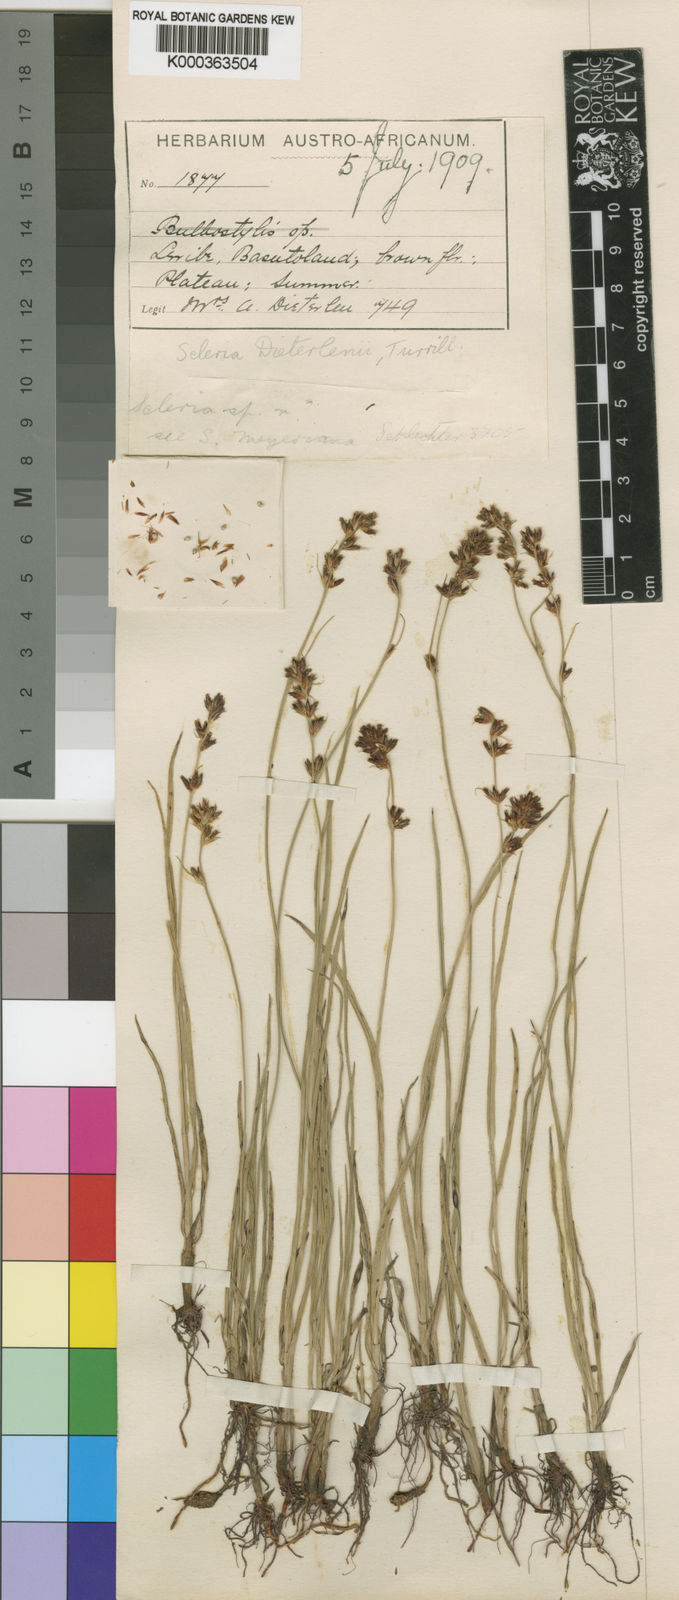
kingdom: Plantae
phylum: Tracheophyta
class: Liliopsida
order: Poales
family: Cyperaceae
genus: Scleria
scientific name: Scleria flexuosa
